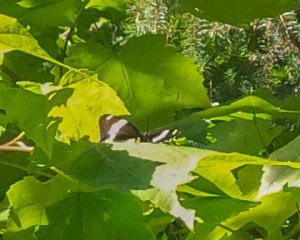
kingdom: Animalia
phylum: Arthropoda
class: Insecta
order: Lepidoptera
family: Nymphalidae
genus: Limenitis
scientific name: Limenitis arthemis
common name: Red-spotted Admiral
